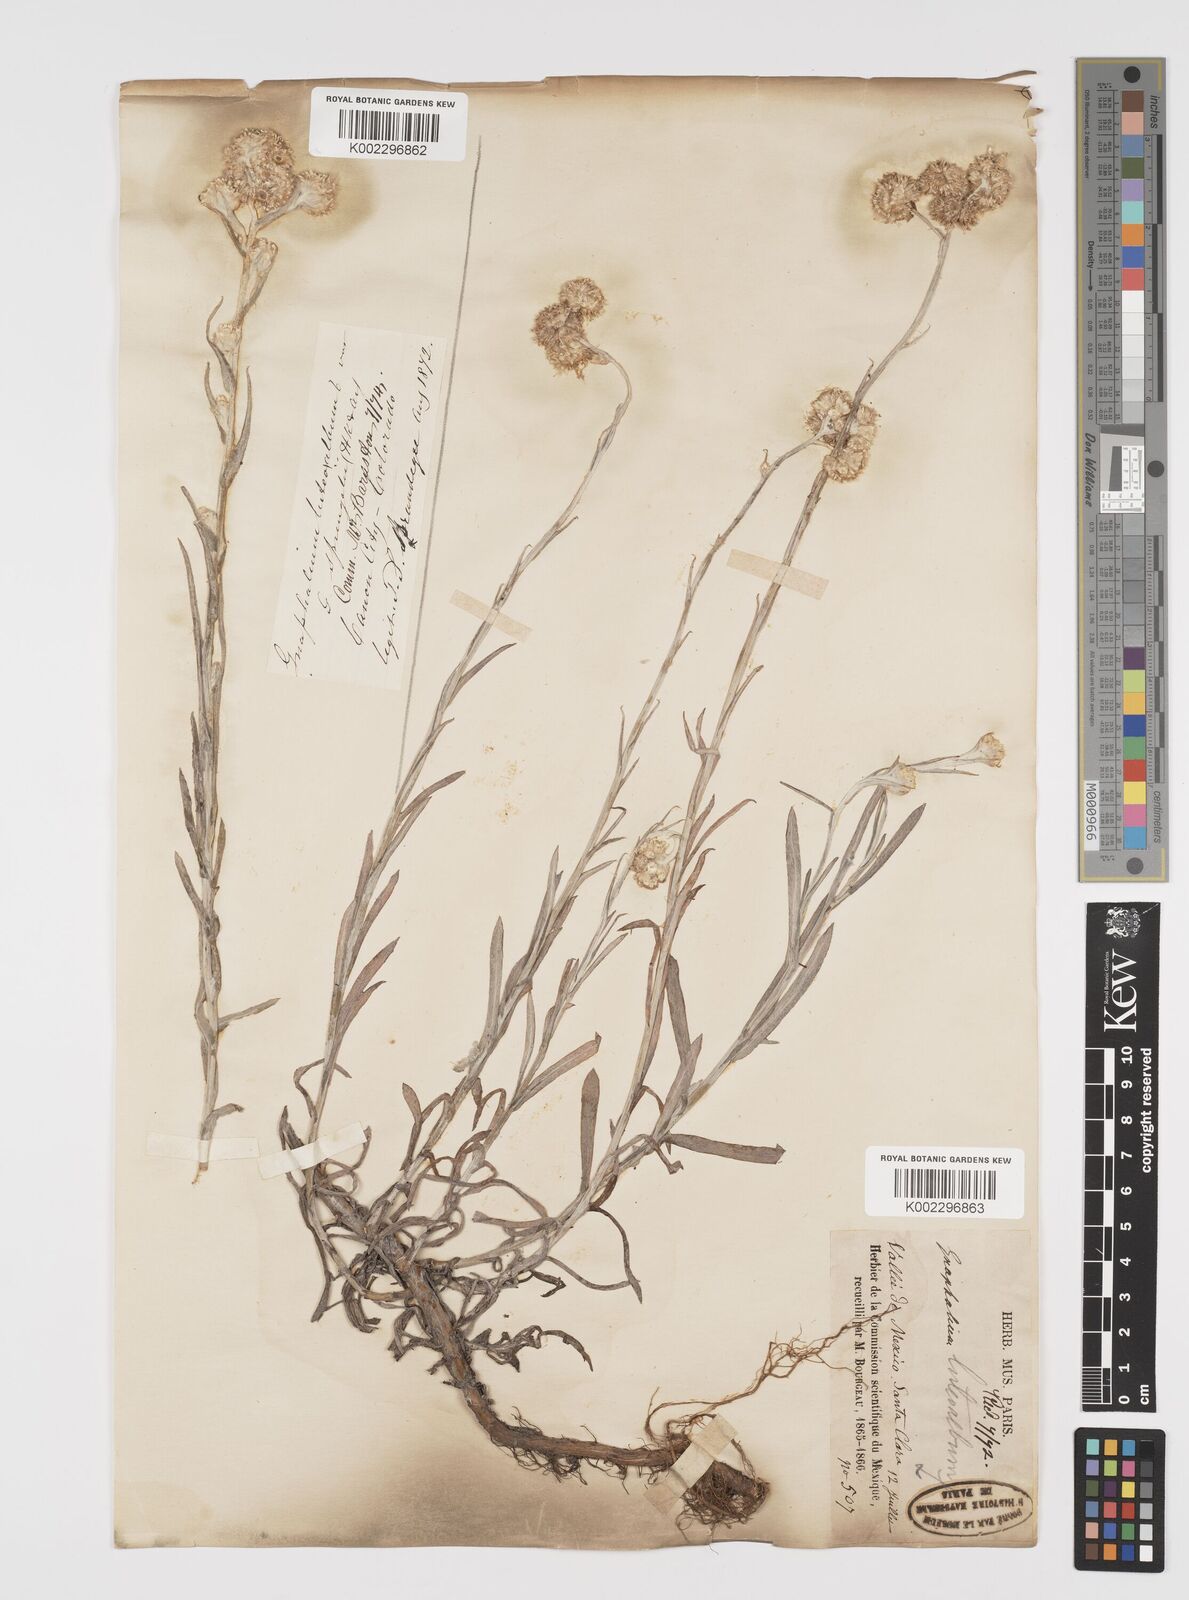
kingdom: Plantae
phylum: Tracheophyta
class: Magnoliopsida
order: Asterales
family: Asteraceae
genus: Helichrysum
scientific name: Helichrysum luteoalbum
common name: Daisy
